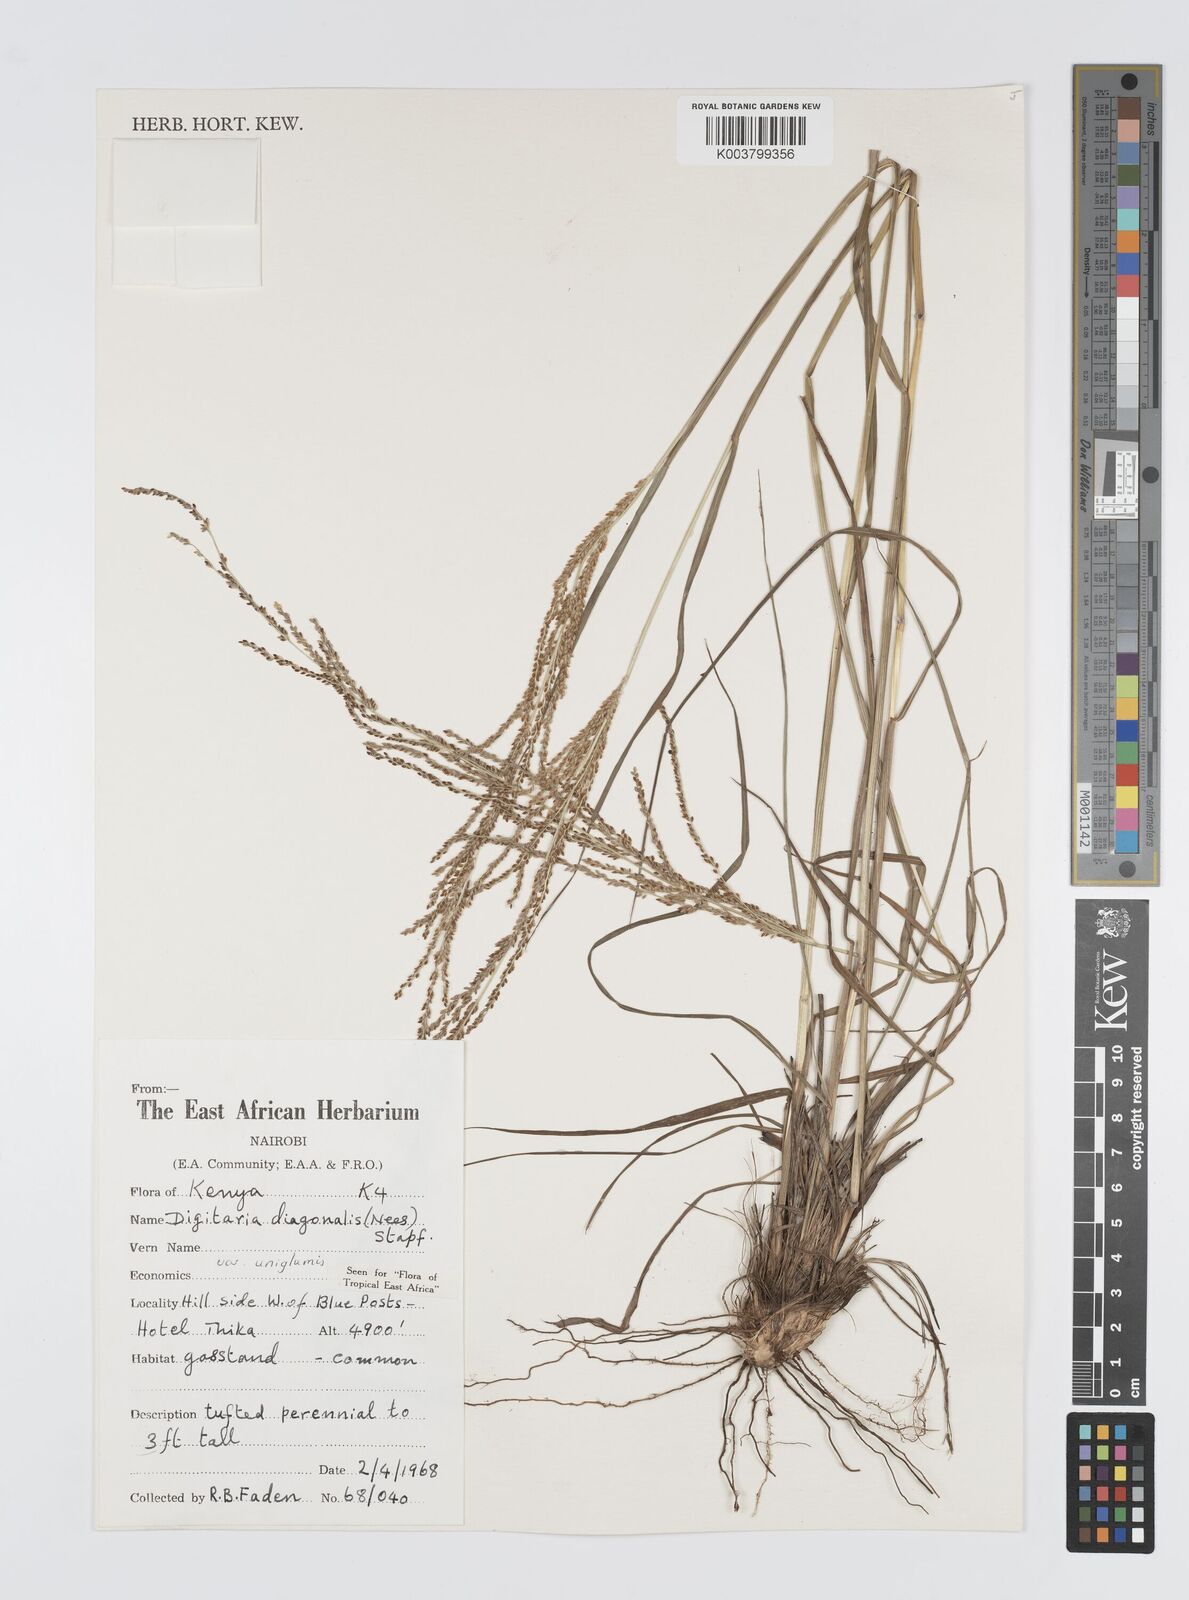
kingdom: Plantae
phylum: Tracheophyta
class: Liliopsida
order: Poales
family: Poaceae
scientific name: Poaceae
